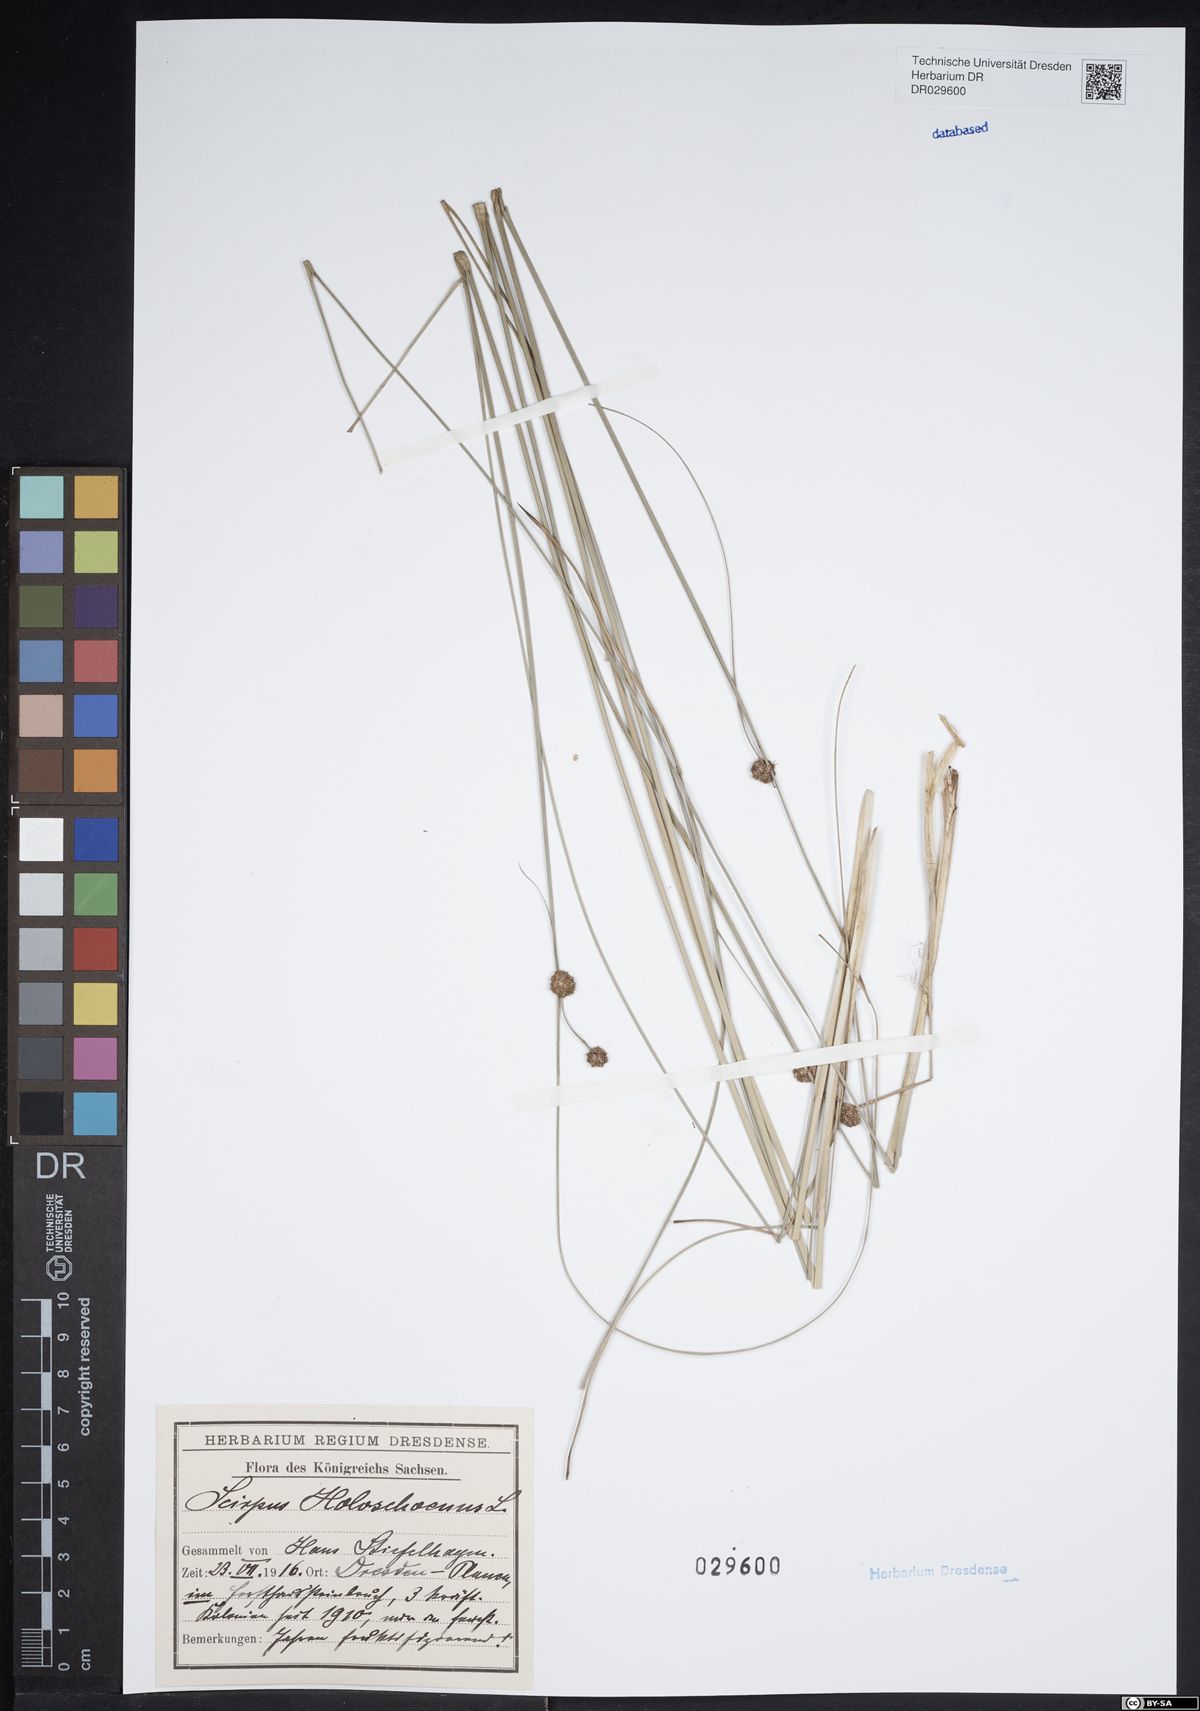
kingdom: Plantae
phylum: Tracheophyta
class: Liliopsida
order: Poales
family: Cyperaceae
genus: Scirpoides
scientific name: Scirpoides holoschoenus
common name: Round-headed club-rush
